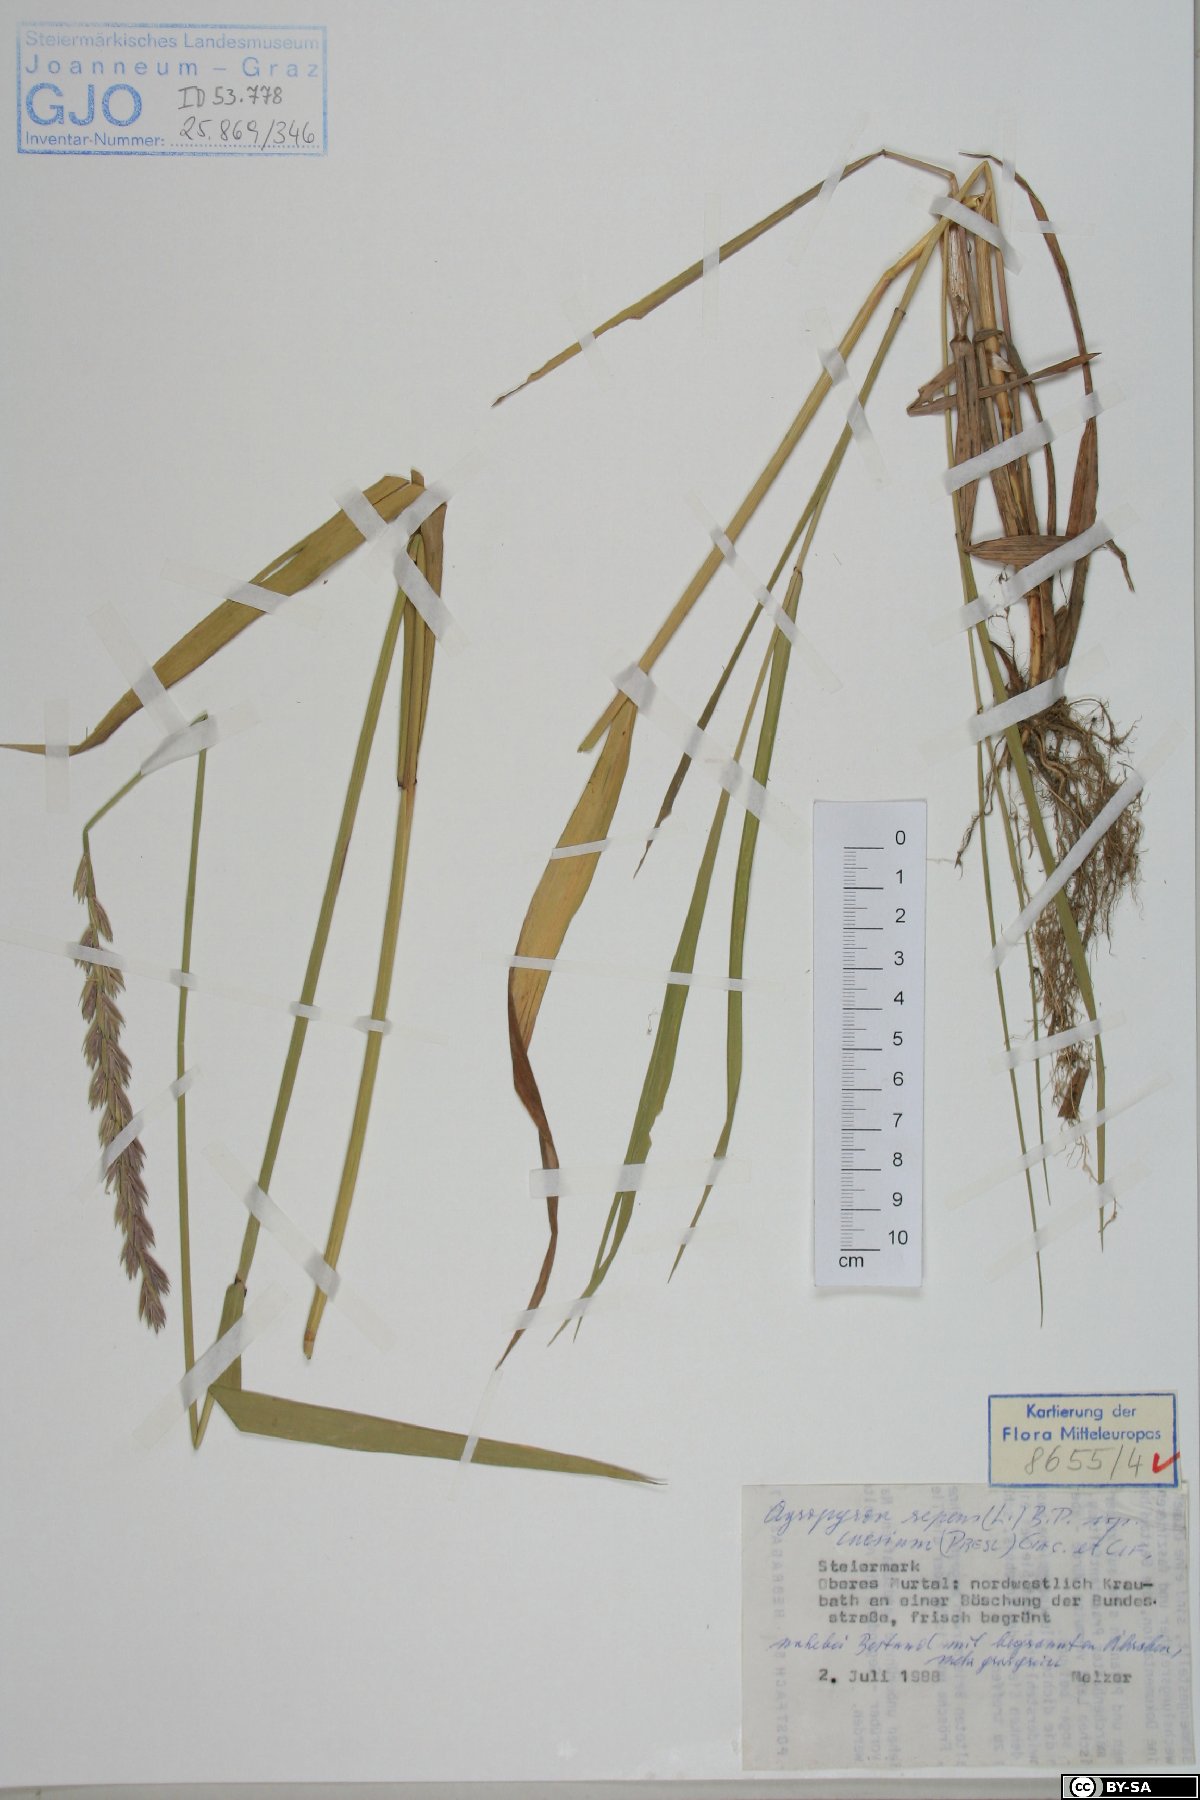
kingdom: Plantae
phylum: Tracheophyta
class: Liliopsida
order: Poales
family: Poaceae
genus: Elymus
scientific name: Elymus repens
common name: Quackgrass
